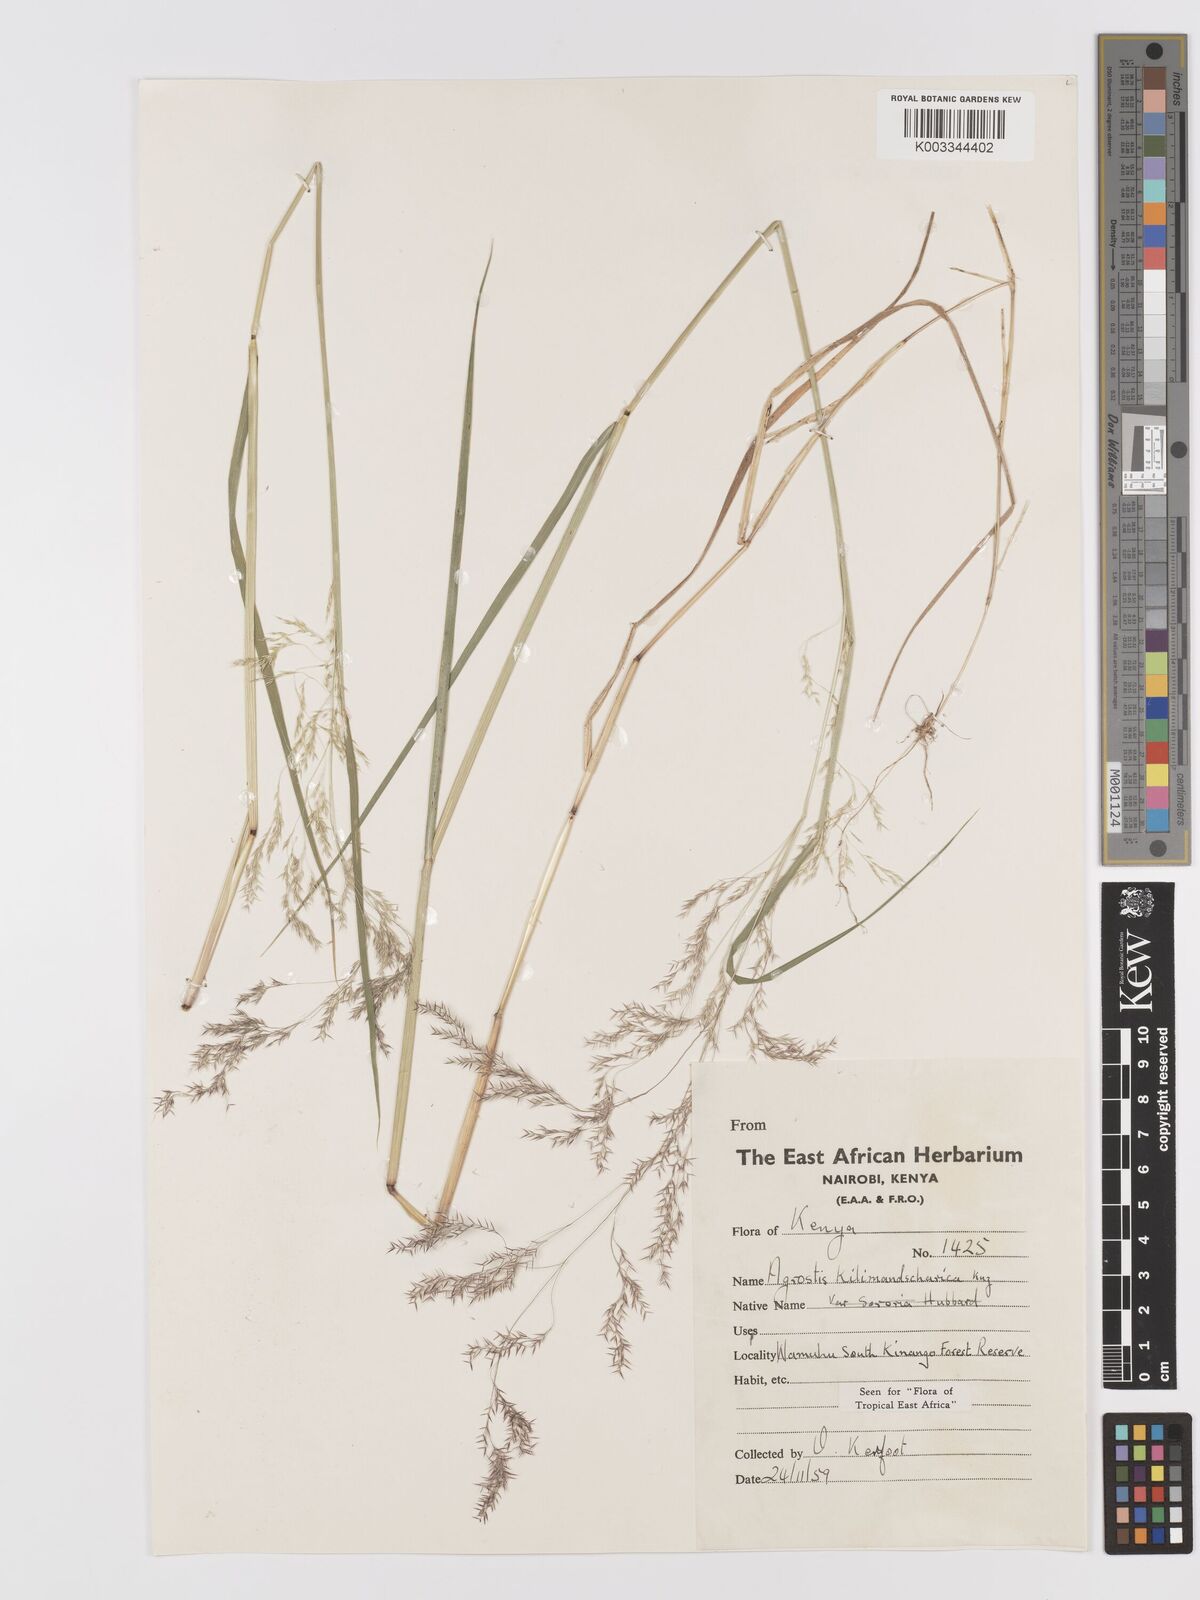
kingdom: Plantae
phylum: Tracheophyta
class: Liliopsida
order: Poales
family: Poaceae
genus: Agrostis
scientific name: Agrostis kilimandscharica
